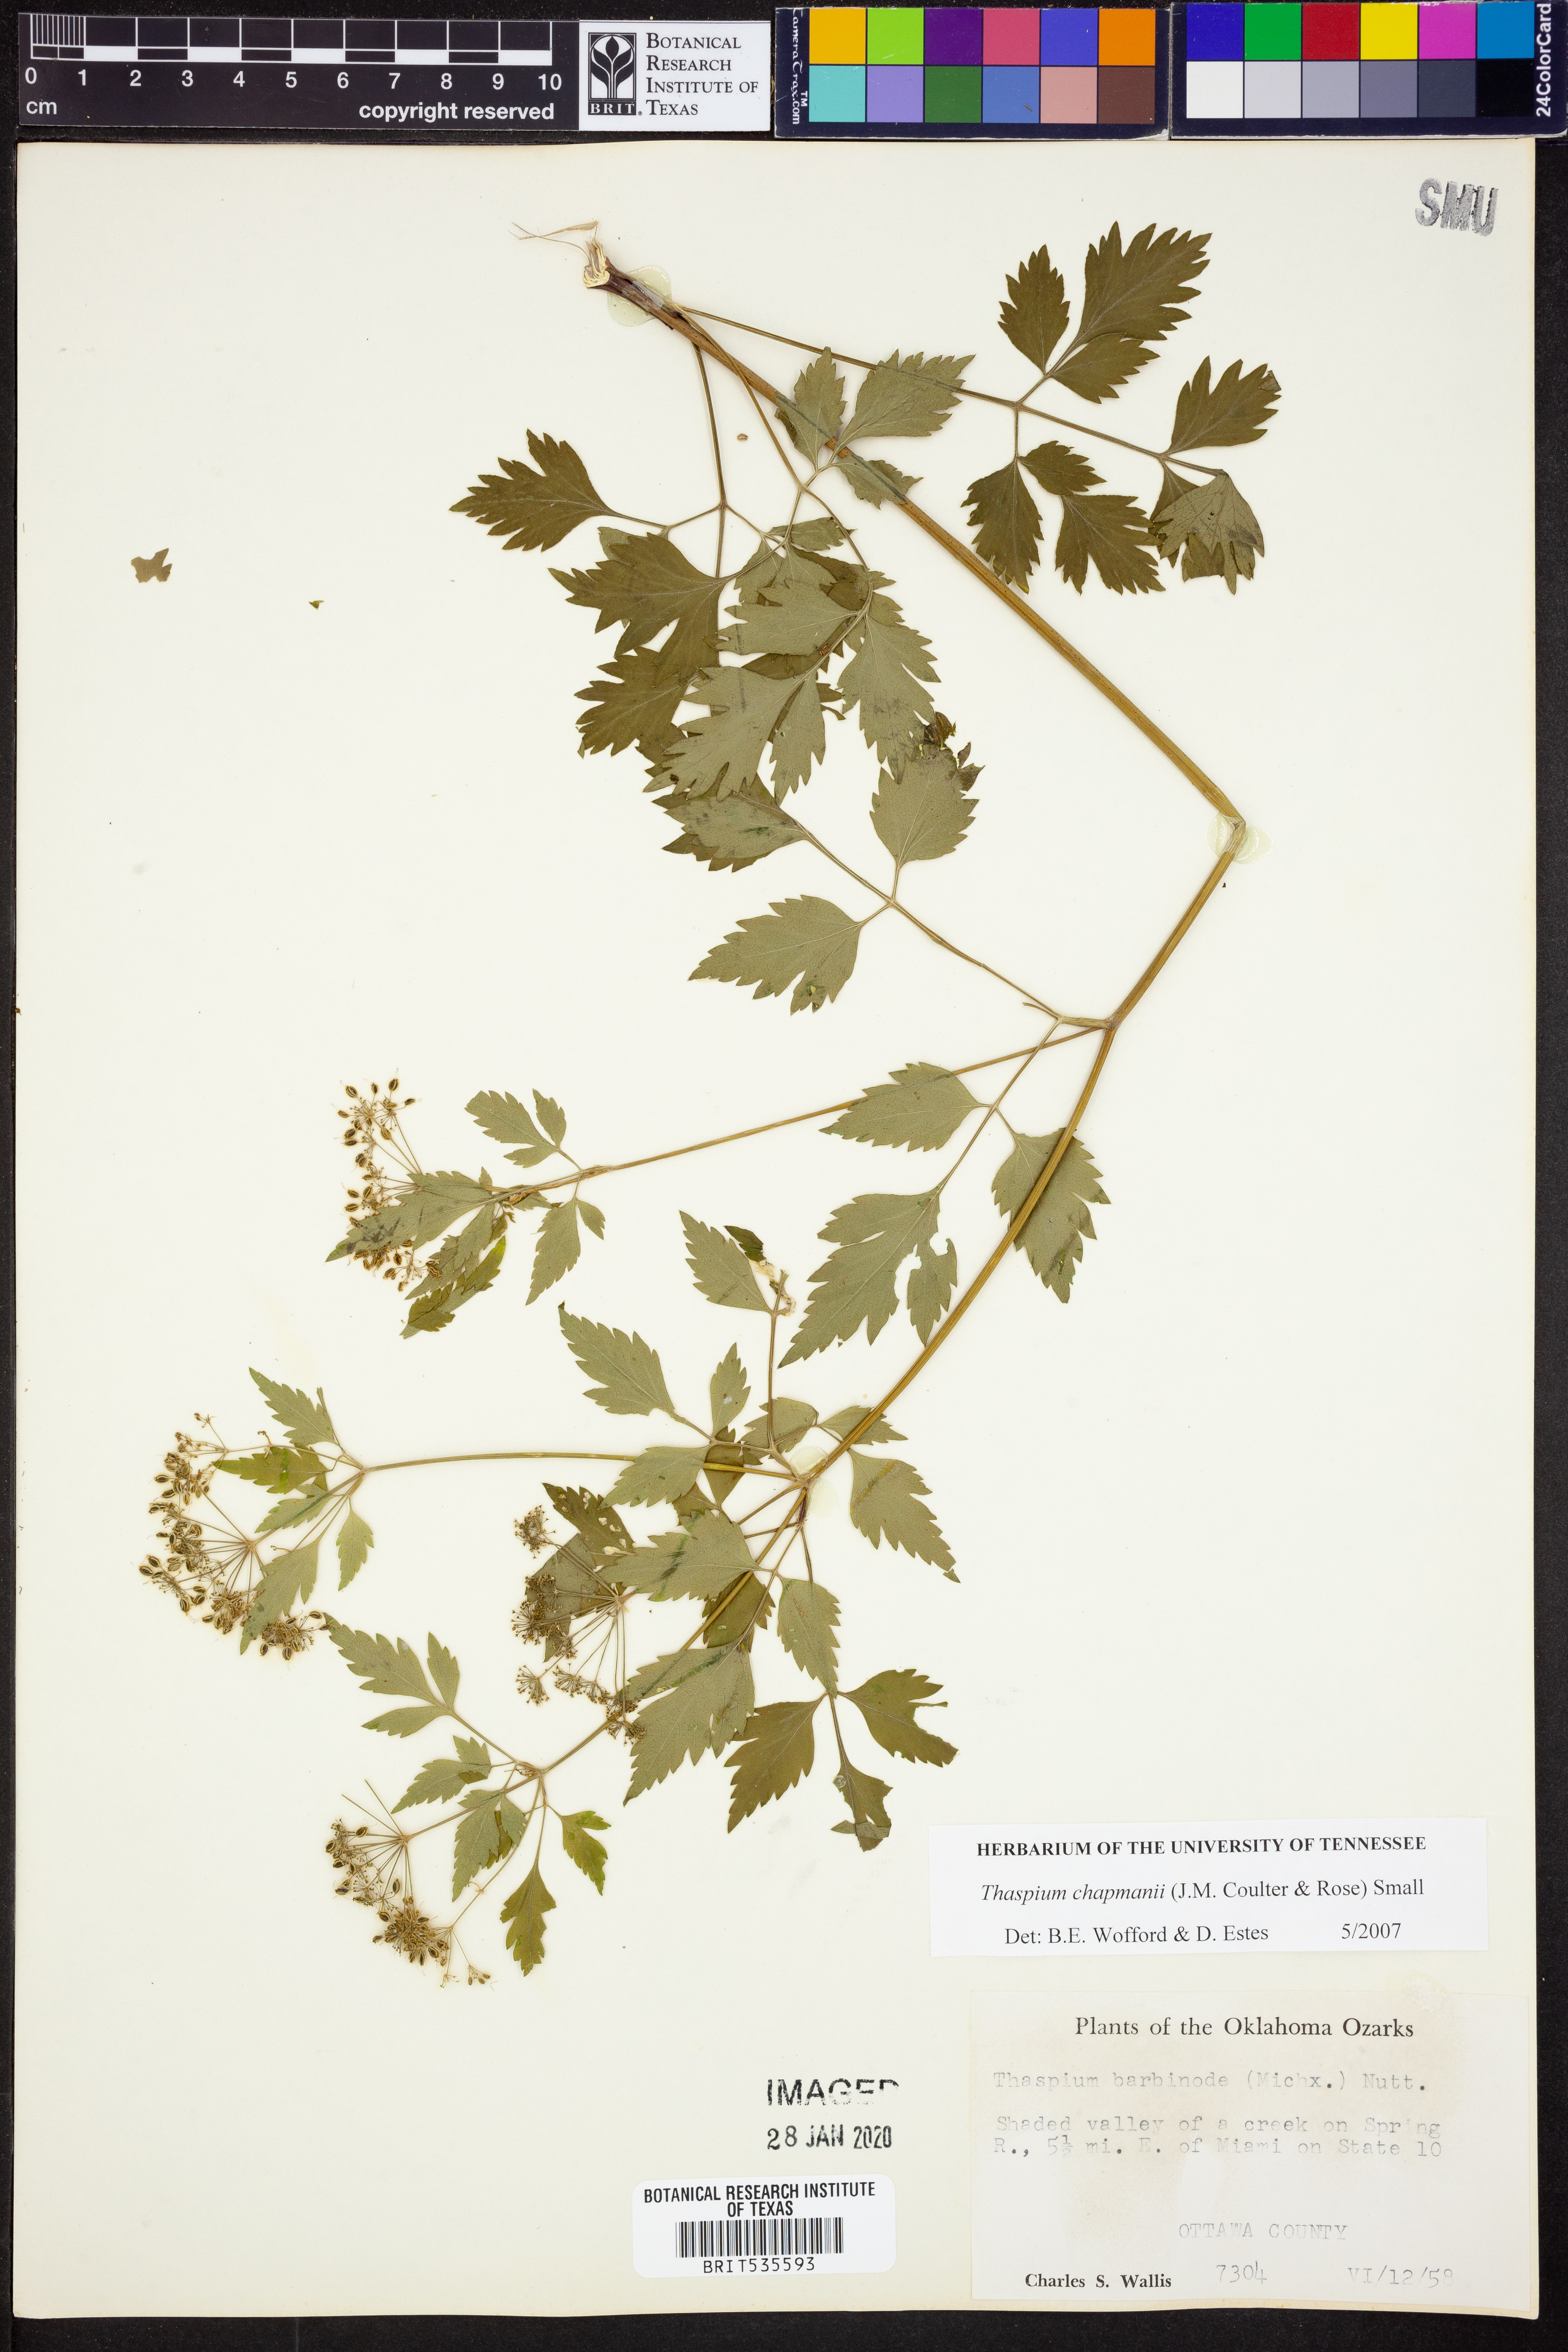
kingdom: Plantae
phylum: Tracheophyta
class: Magnoliopsida
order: Apiales
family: Apiaceae
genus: Thaspium
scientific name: Thaspium barbinode
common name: Bearded meadow-parsnip
